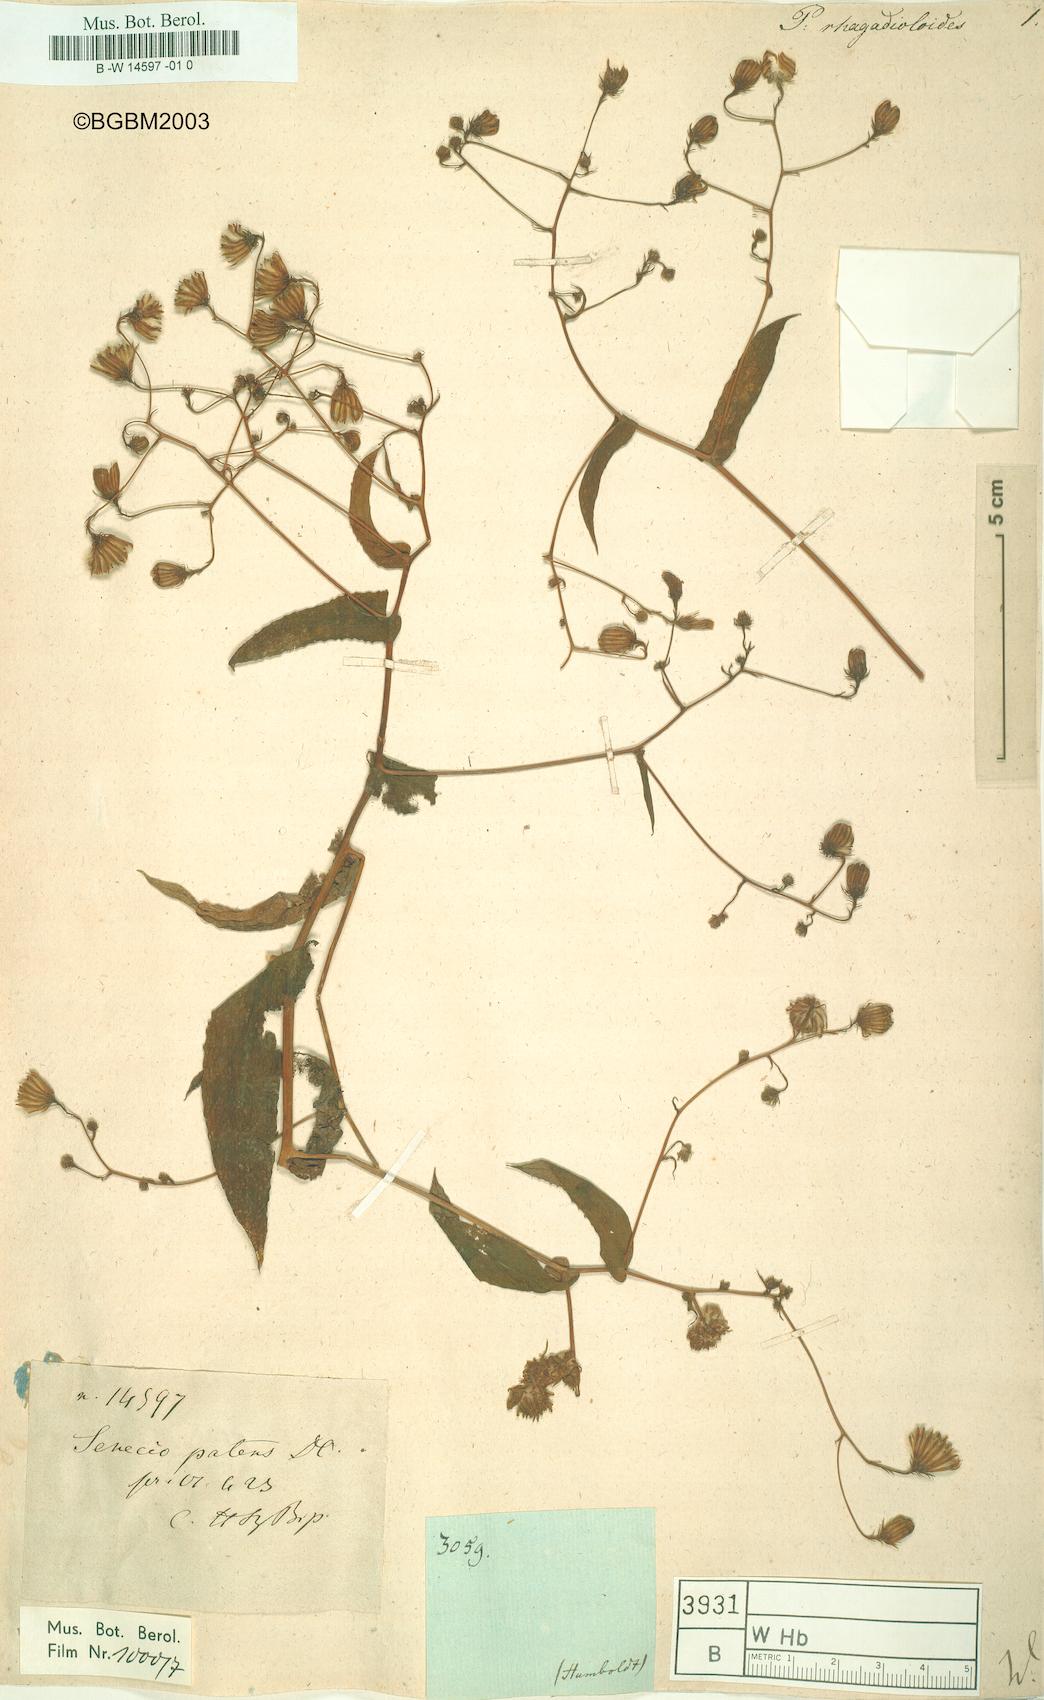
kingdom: Plantae
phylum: Tracheophyta
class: Magnoliopsida
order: Asterales
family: Asteraceae
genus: Prenanthes
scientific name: Prenanthes
